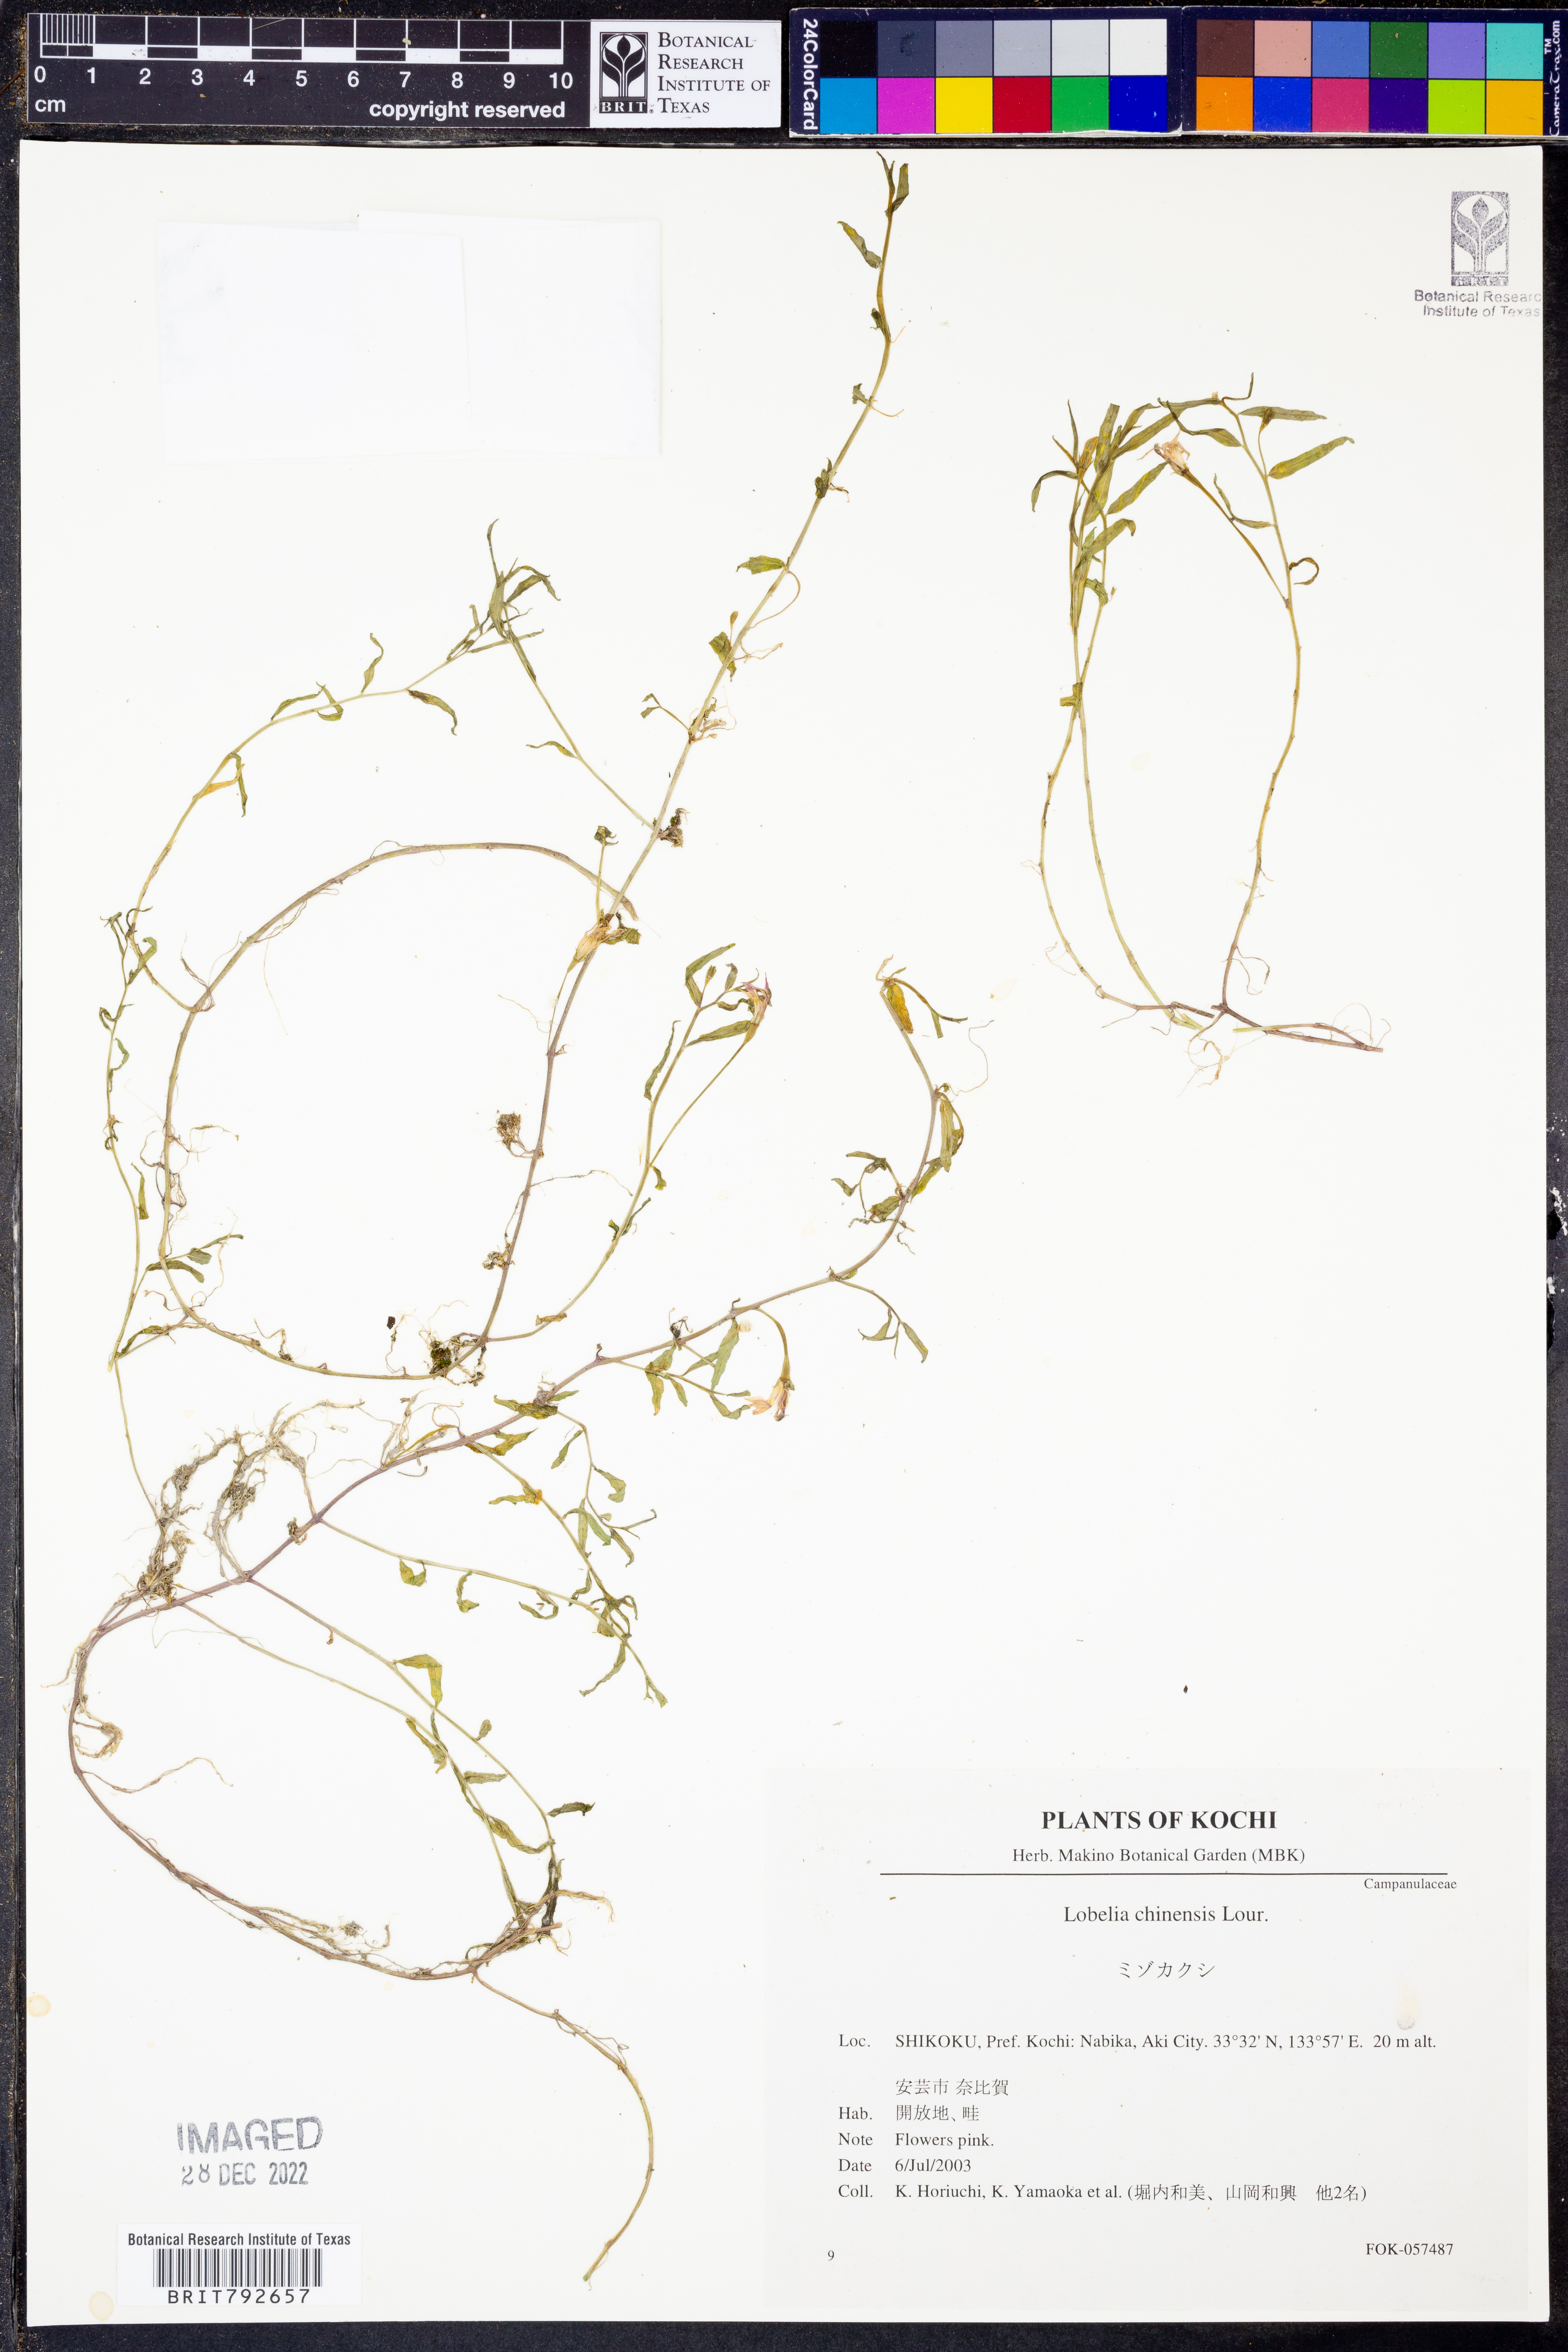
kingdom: Plantae
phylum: Tracheophyta
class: Magnoliopsida
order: Asterales
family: Campanulaceae
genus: Lobelia
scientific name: Lobelia chinensis
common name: Chinese lobelia
